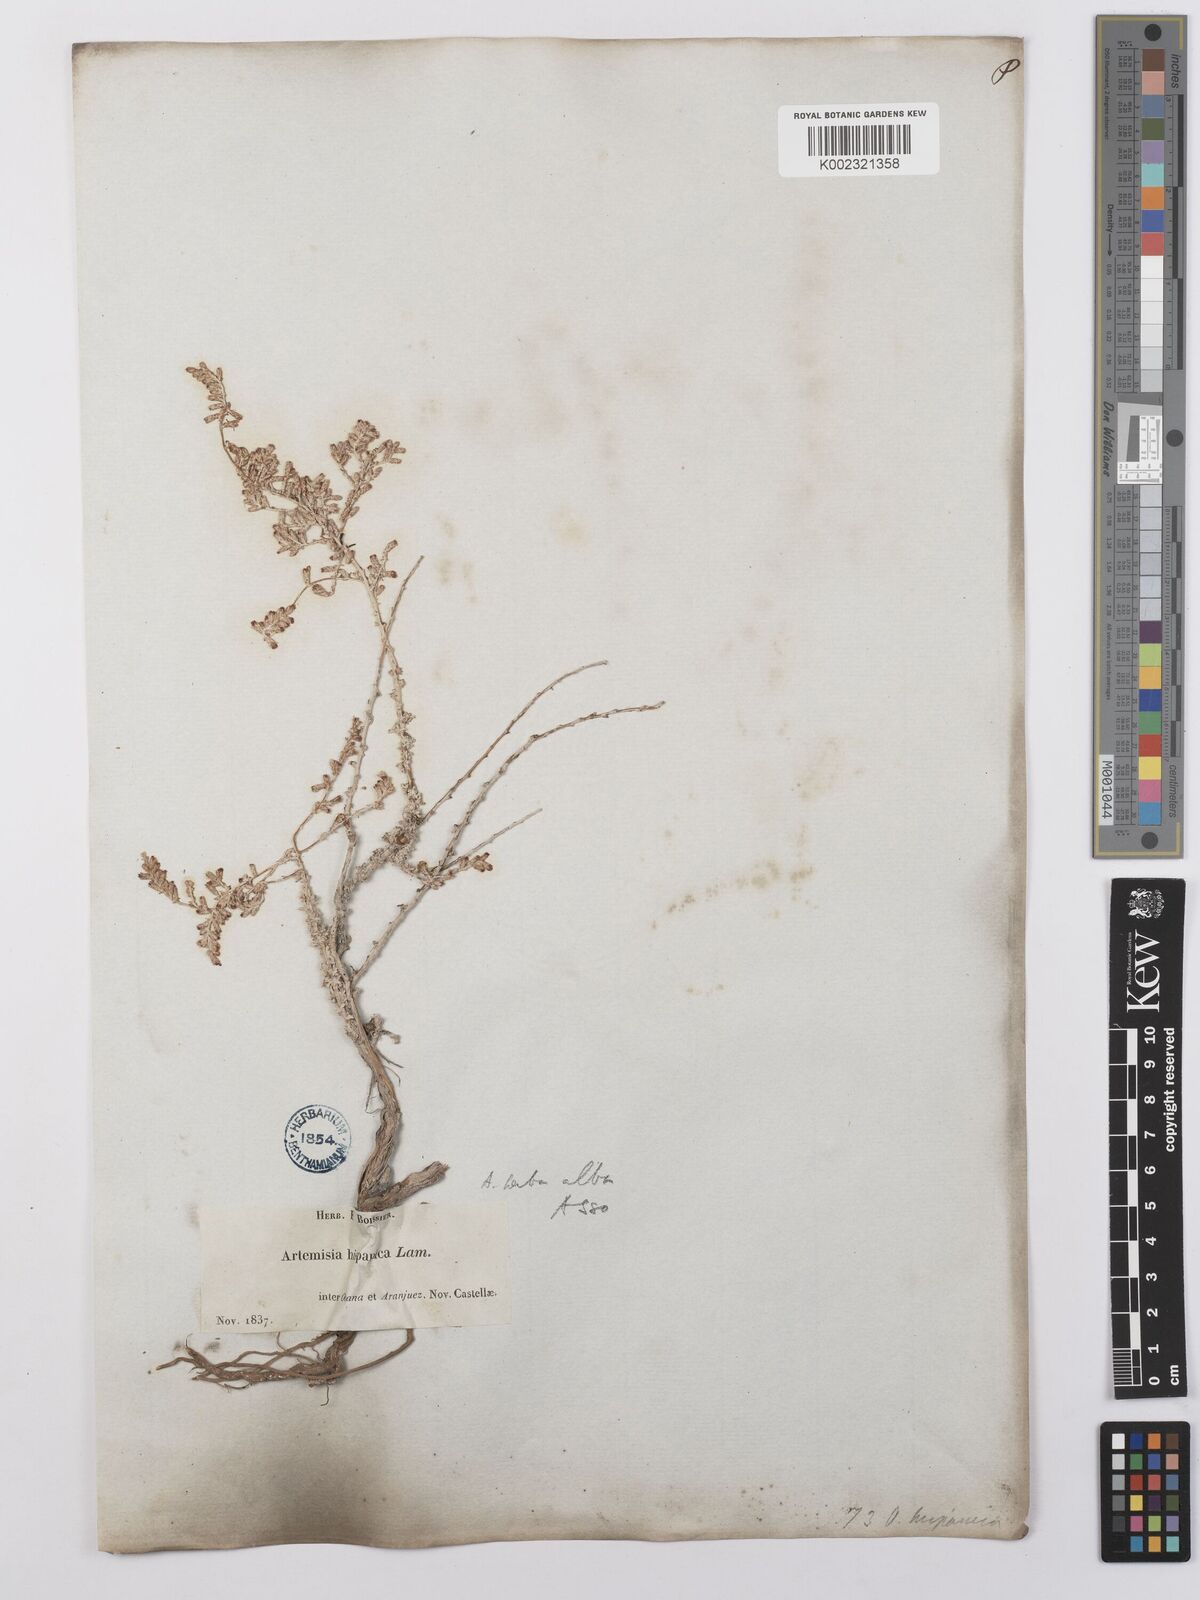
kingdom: Plantae
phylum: Tracheophyta
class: Magnoliopsida
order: Asterales
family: Asteraceae
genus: Artemisia
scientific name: Artemisia herba-alba
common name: White wormwood
